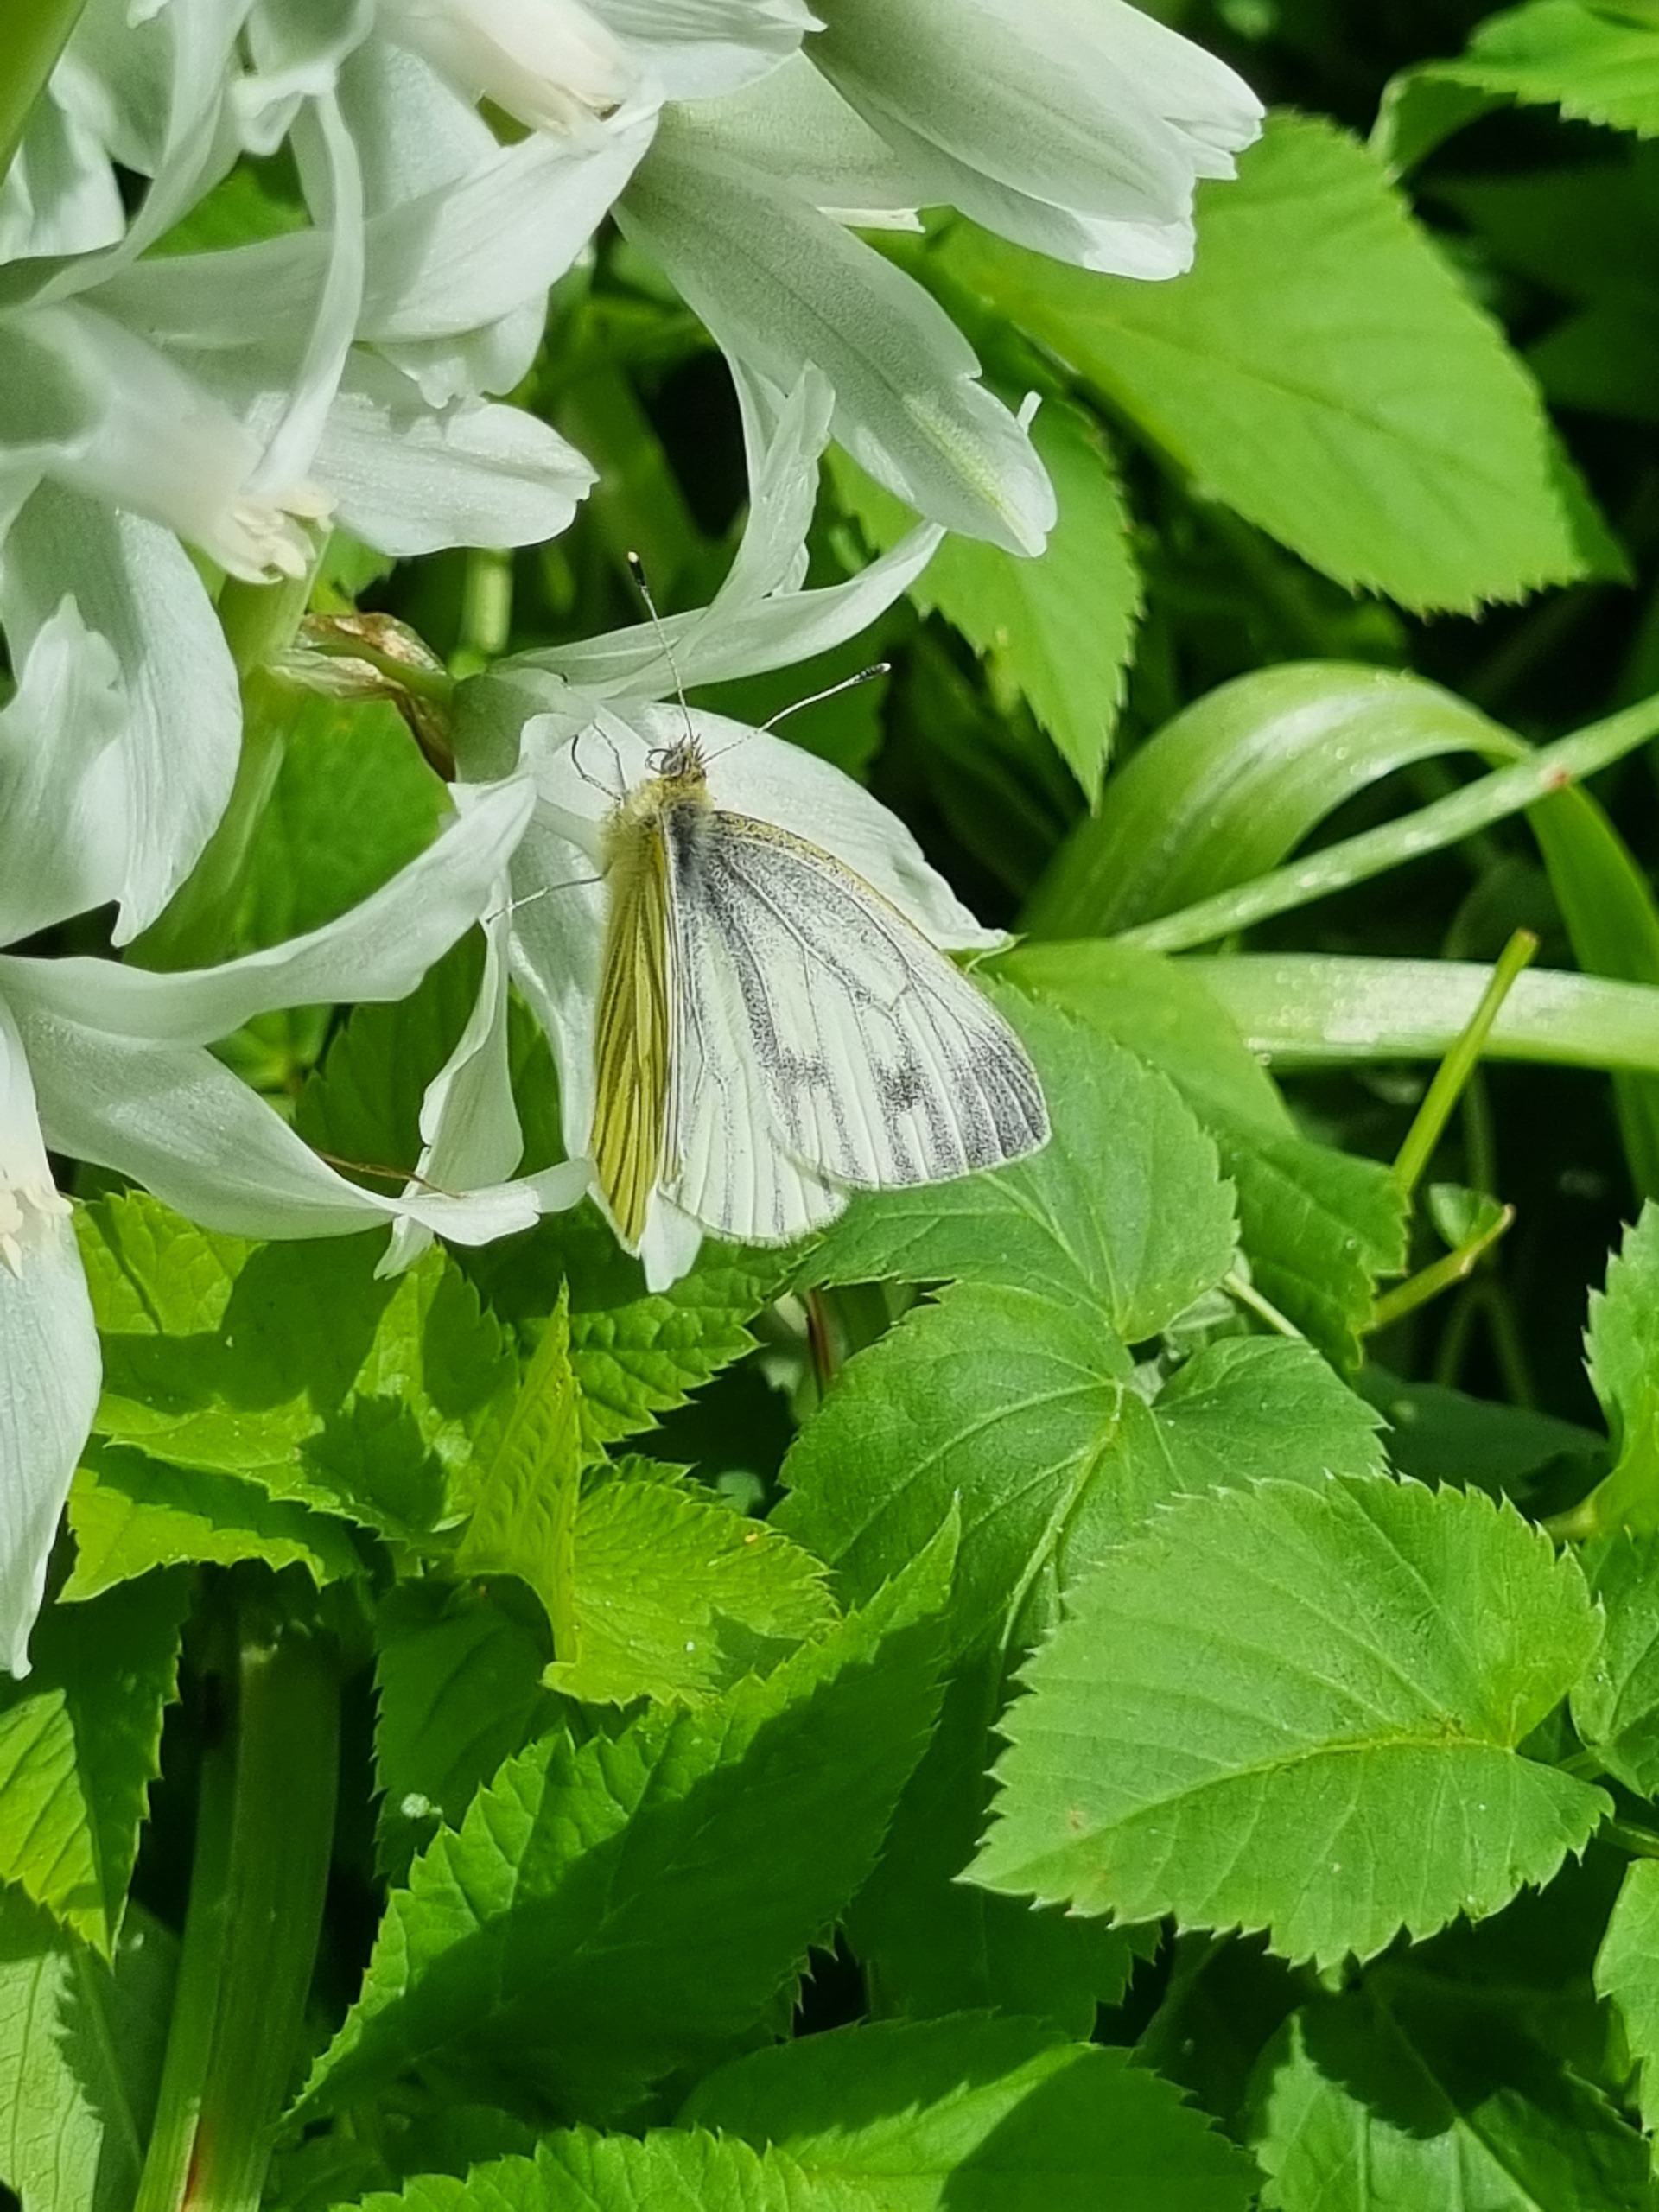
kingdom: Animalia
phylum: Arthropoda
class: Insecta
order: Lepidoptera
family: Pieridae
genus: Pieris
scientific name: Pieris napi
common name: Grønåret kålsommerfugl
